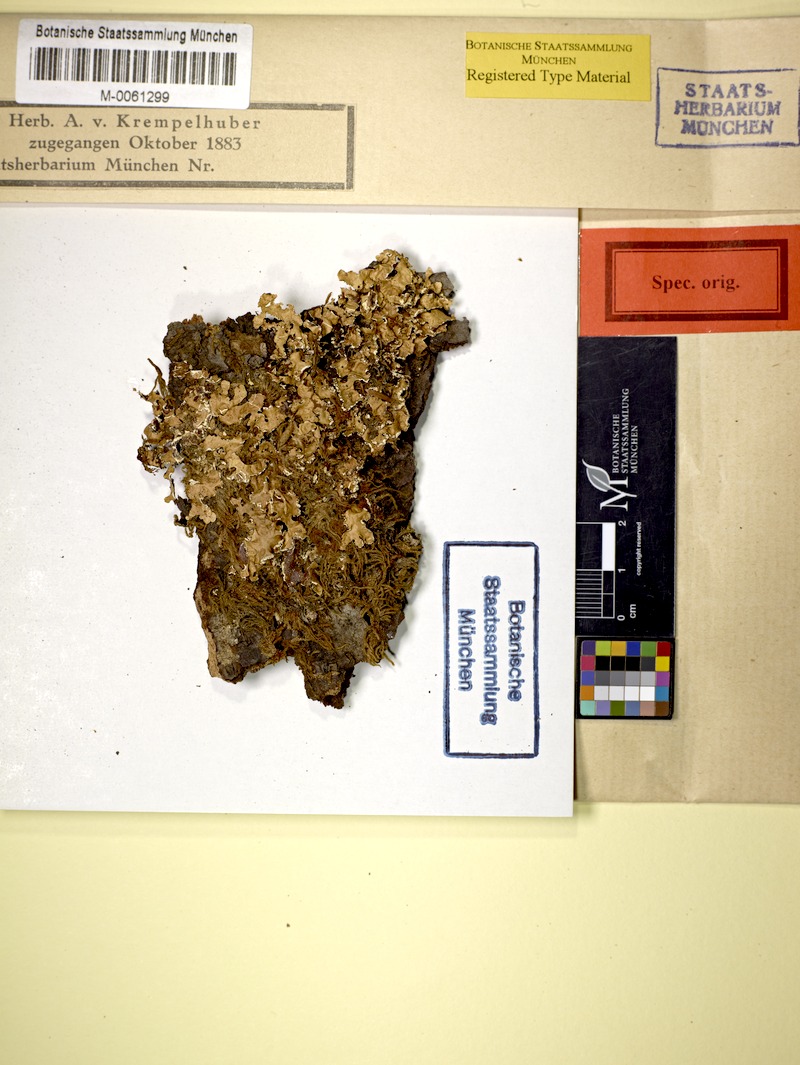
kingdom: Fungi
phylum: Ascomycota
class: Lecanoromycetes
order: Lecanorales
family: Parmeliaceae
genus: Usnocetraria
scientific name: Usnocetraria oakesiana
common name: Yellow ribbon lichen
